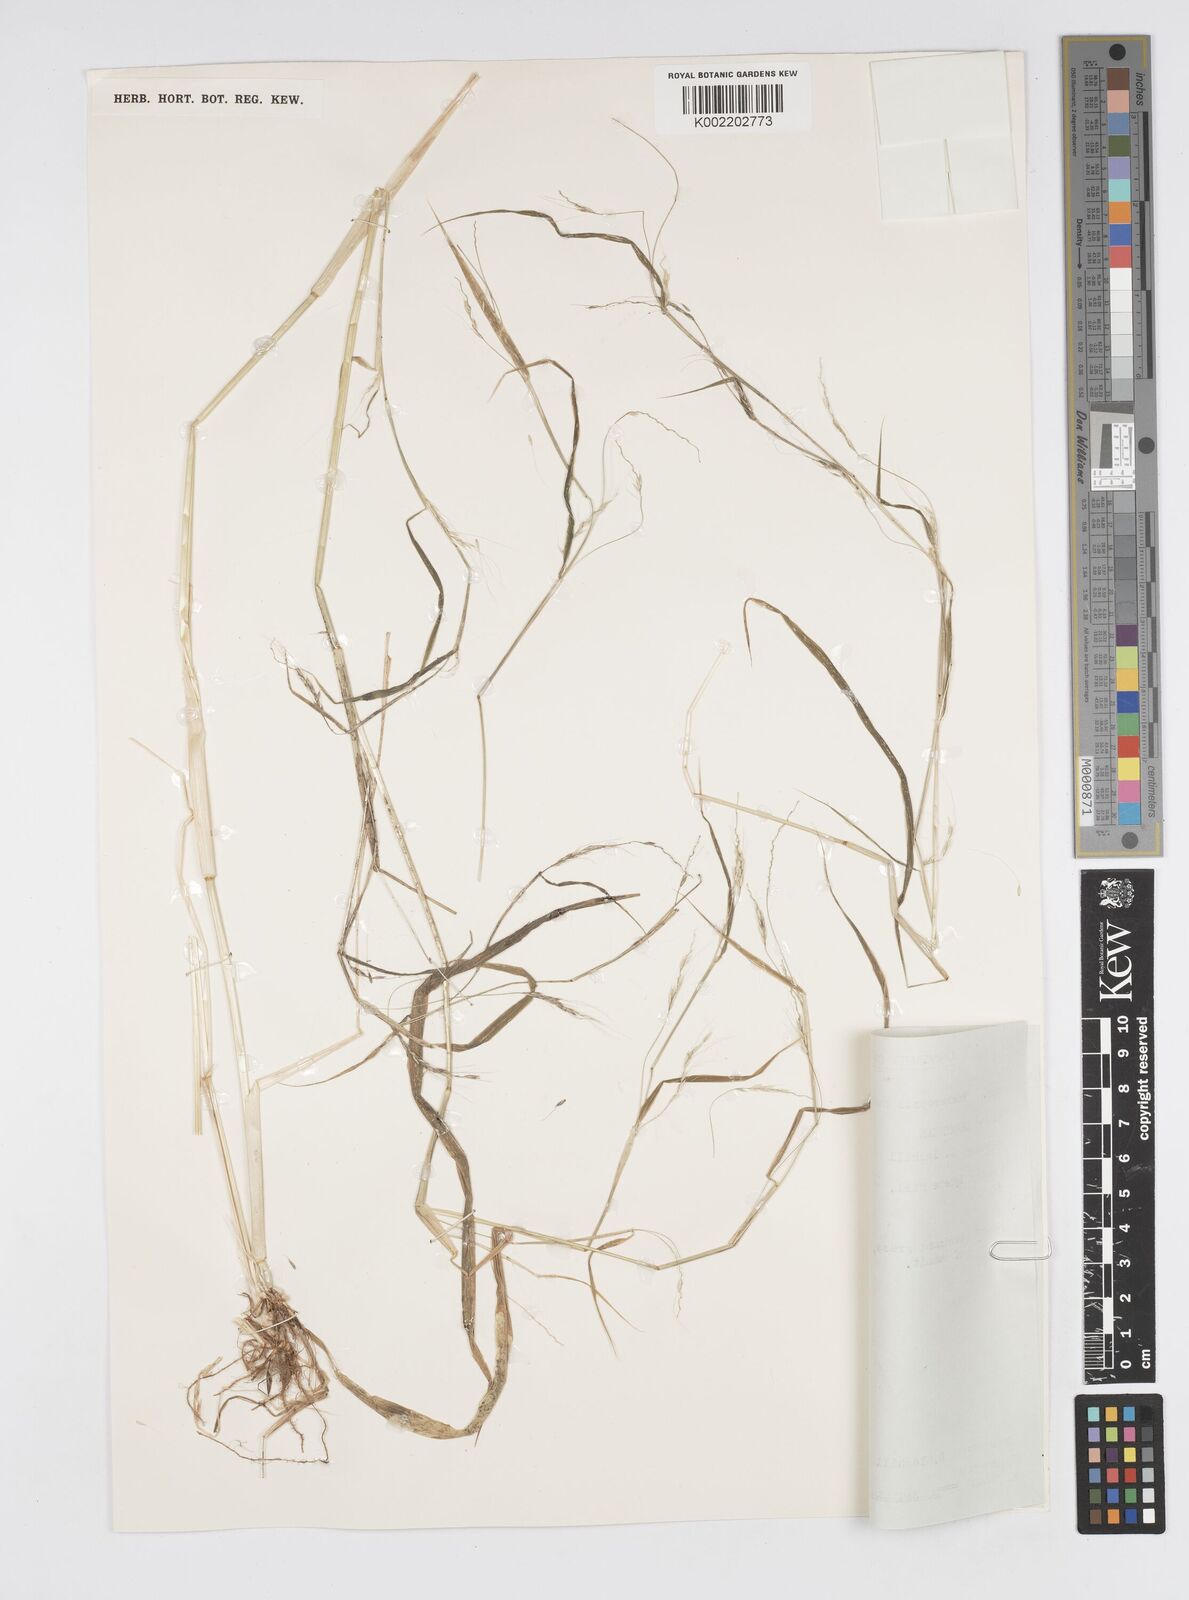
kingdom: Plantae
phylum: Tracheophyta
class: Liliopsida
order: Poales
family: Poaceae
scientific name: Poaceae
